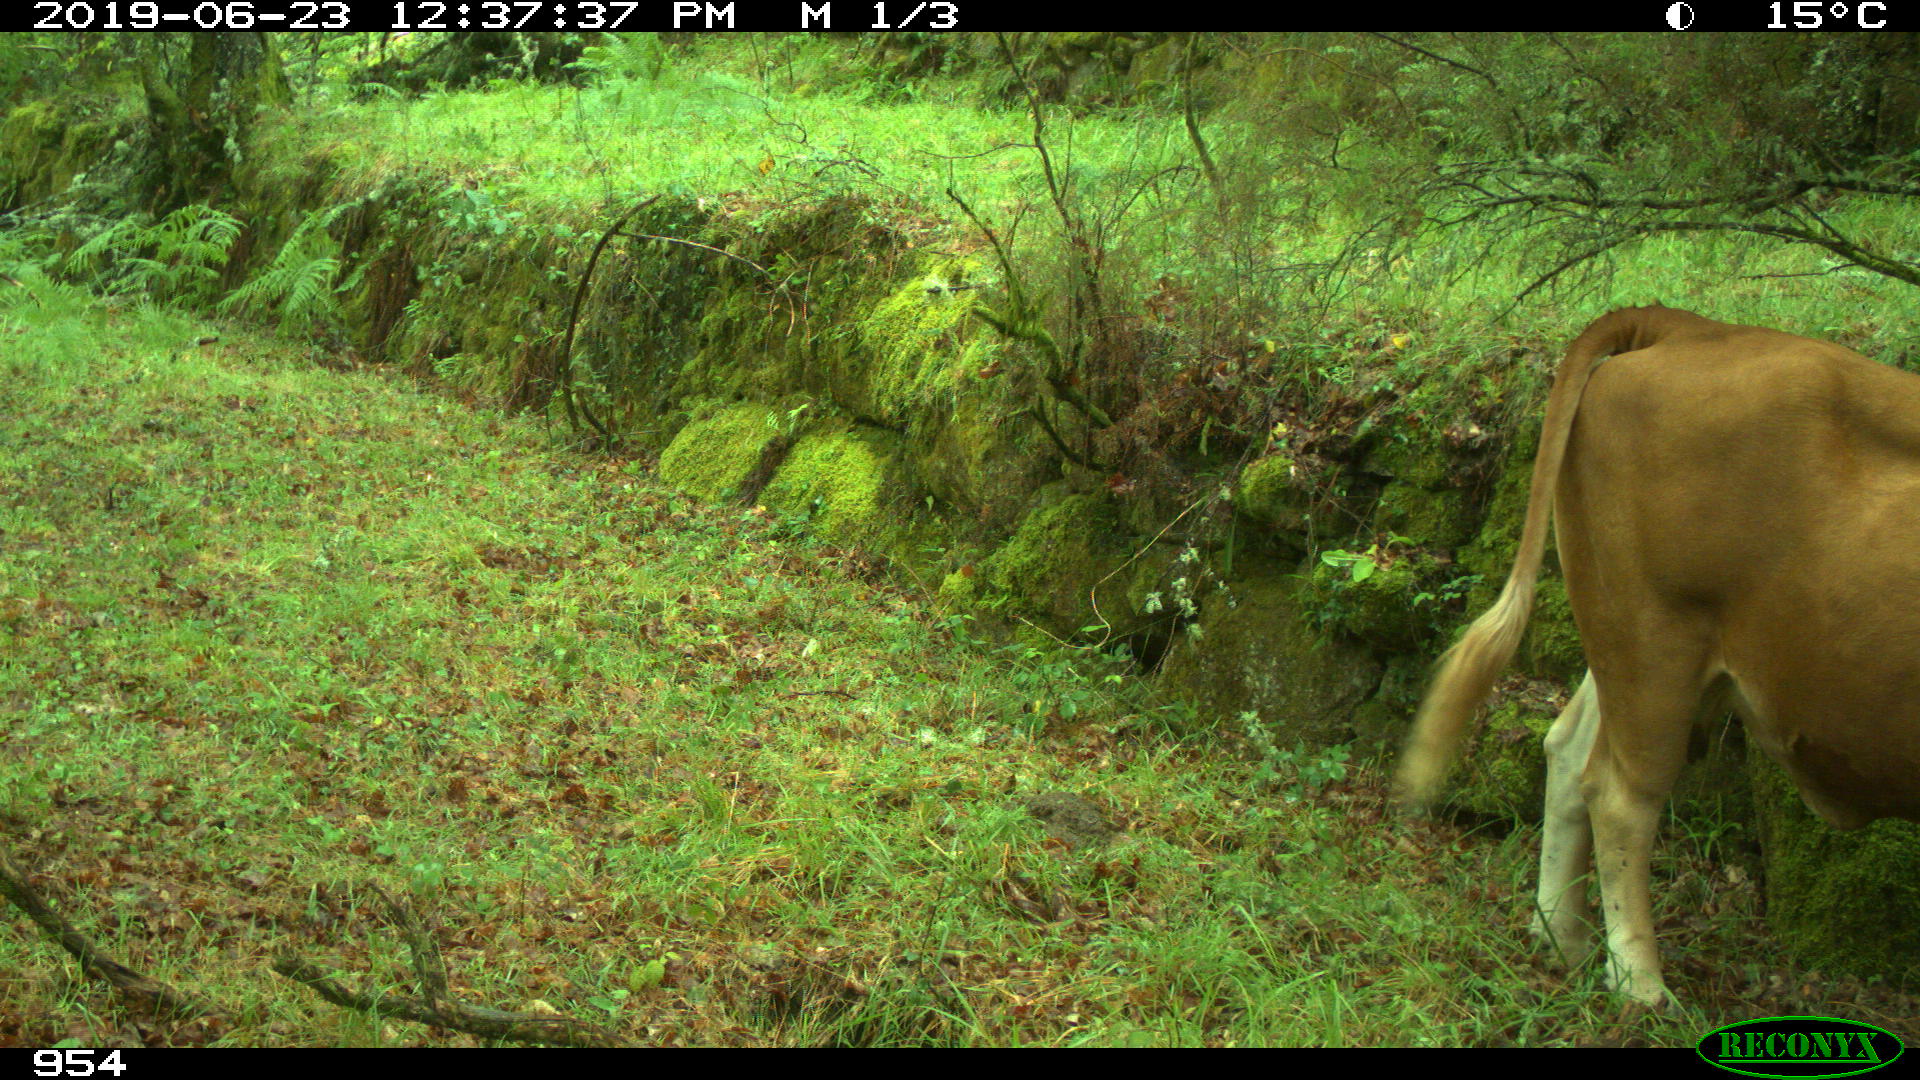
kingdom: Animalia
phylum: Chordata
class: Mammalia
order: Artiodactyla
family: Bovidae
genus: Bos
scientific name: Bos taurus
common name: Domesticated cattle
